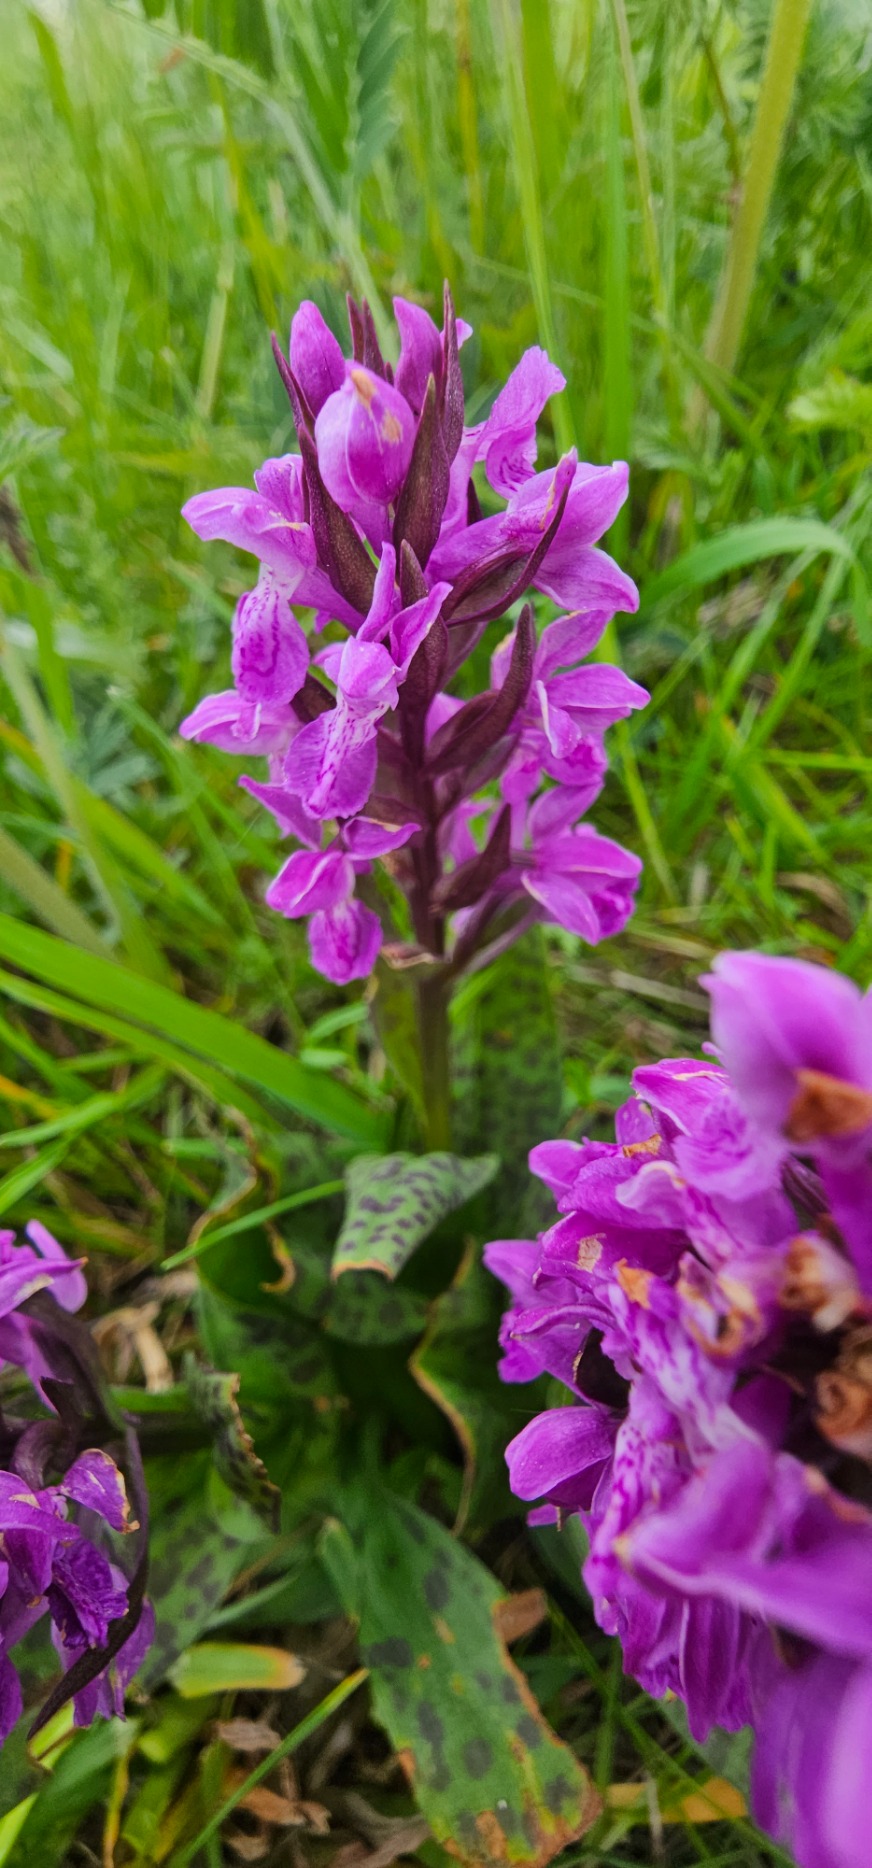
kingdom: Plantae
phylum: Tracheophyta
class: Liliopsida
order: Asparagales
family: Orchidaceae
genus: Dactylorhiza
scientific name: Dactylorhiza majalis
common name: Maj-gøgeurt
